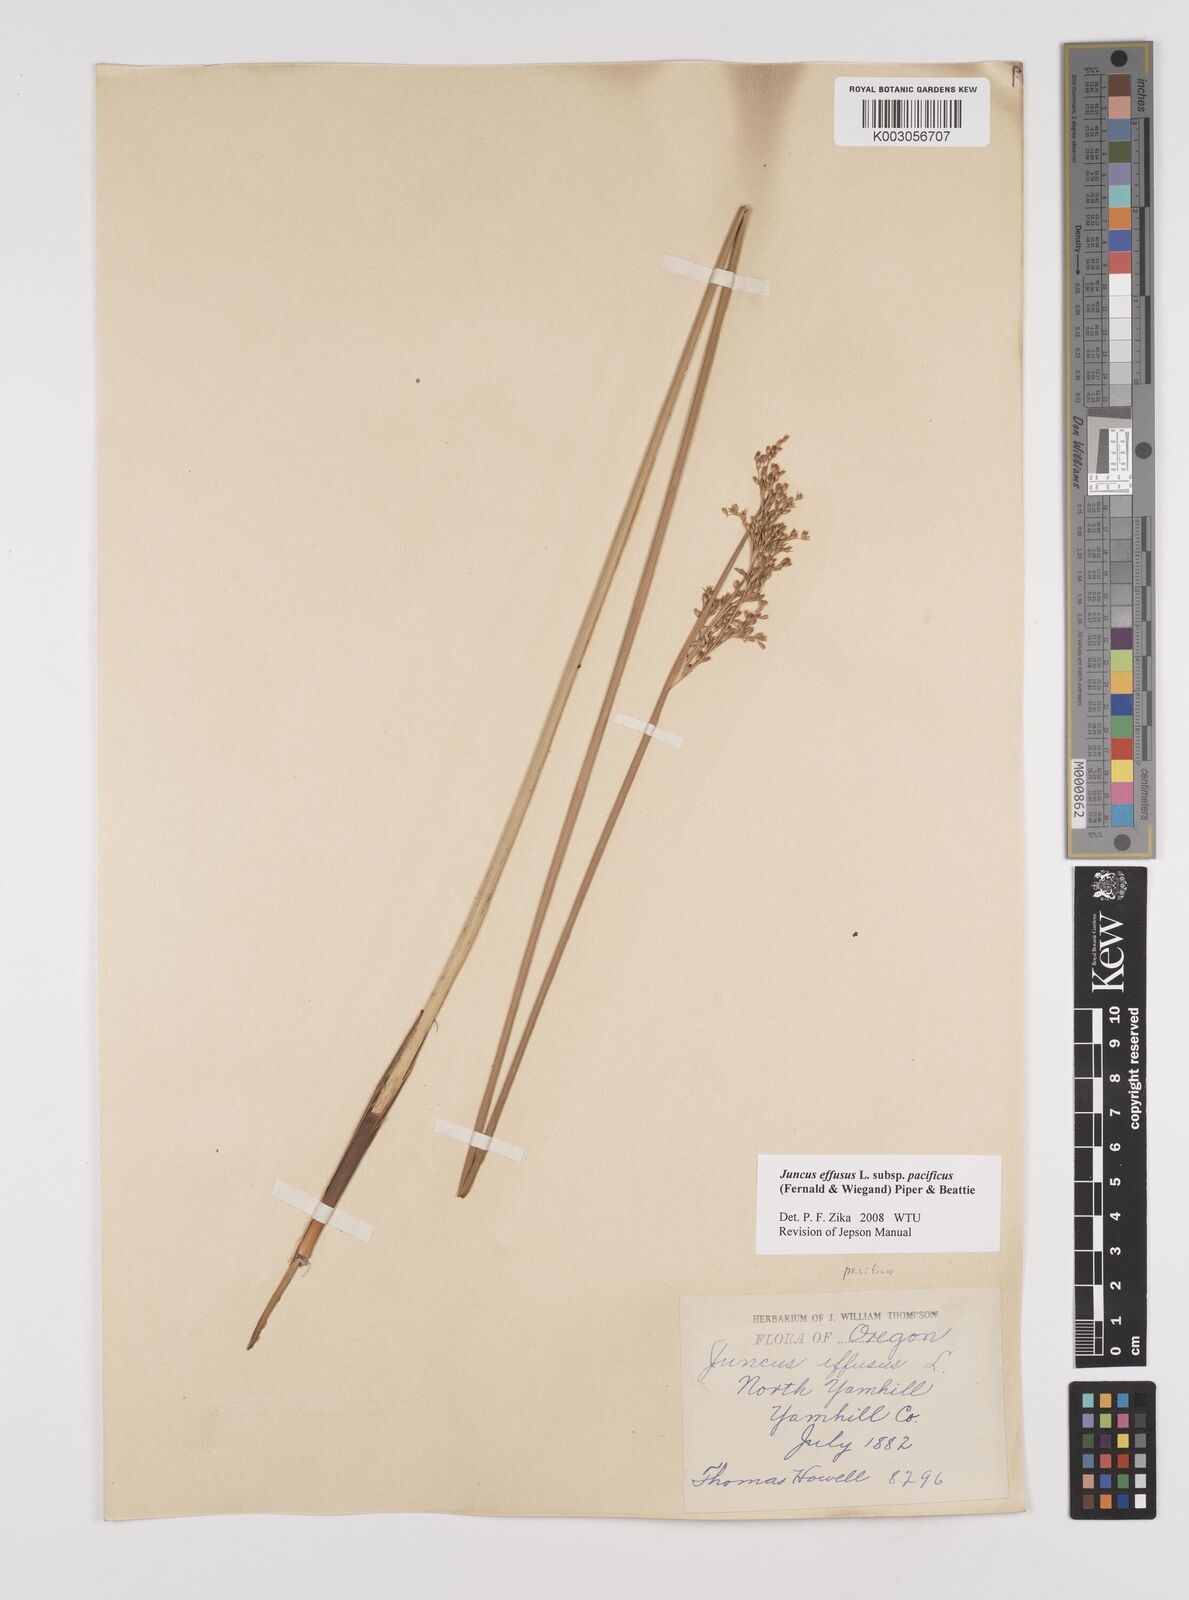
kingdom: Plantae
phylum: Tracheophyta
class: Liliopsida
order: Poales
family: Juncaceae
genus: Juncus
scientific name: Juncus effusus
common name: Soft rush
